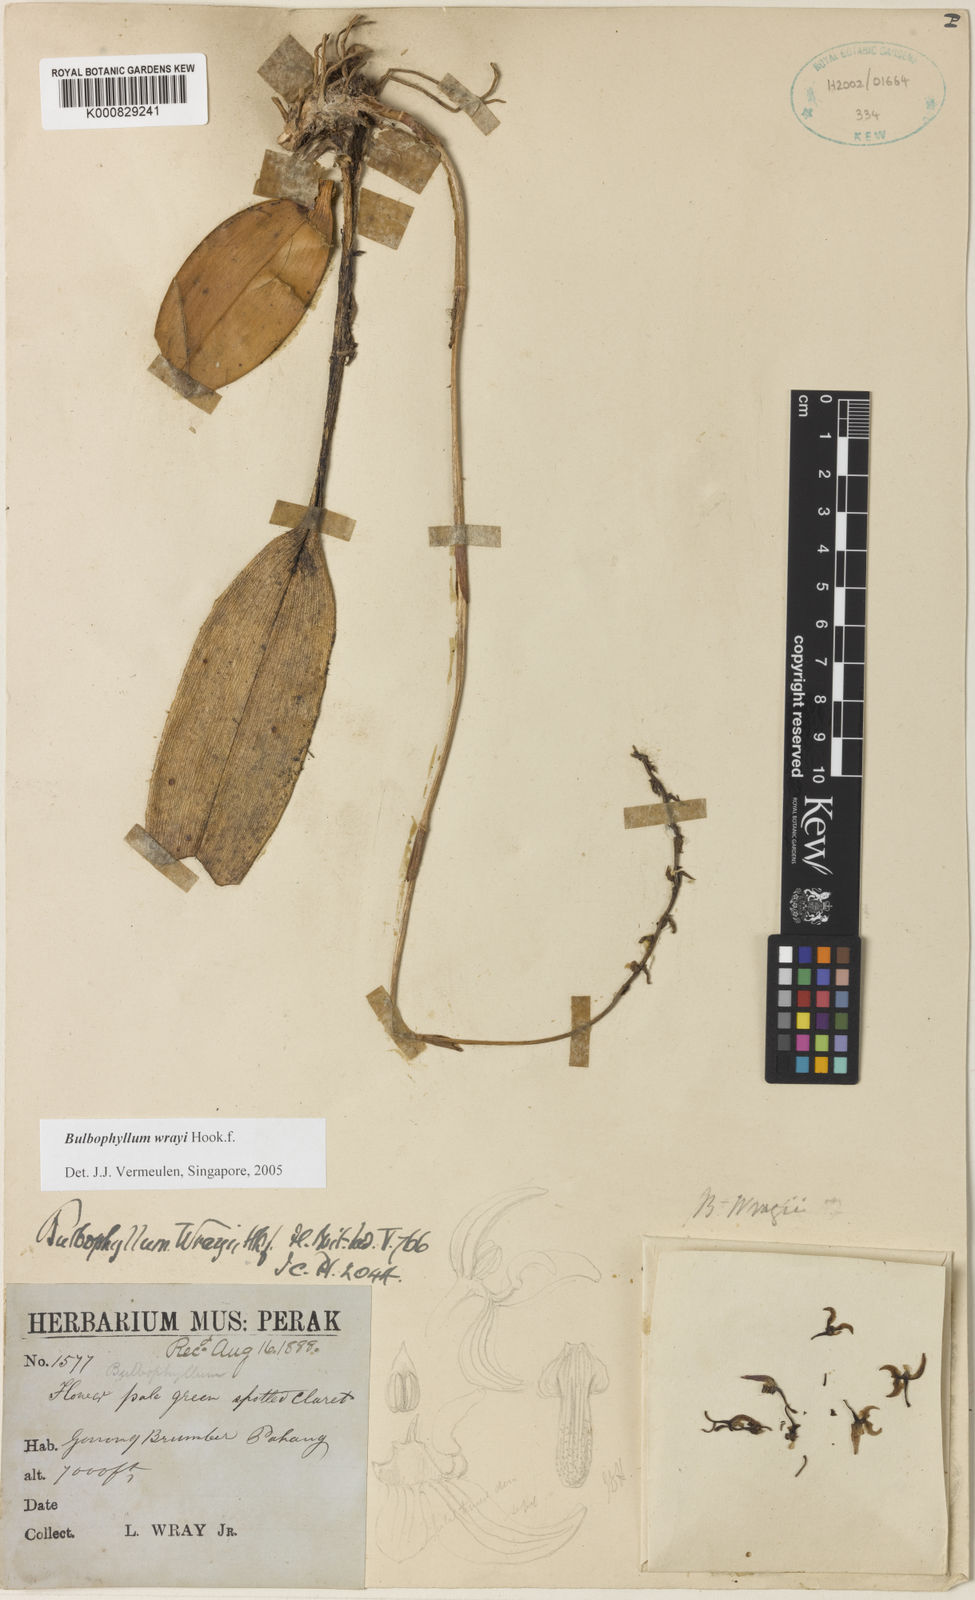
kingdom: Plantae
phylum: Tracheophyta
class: Liliopsida
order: Asparagales
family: Orchidaceae
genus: Bulbophyllum
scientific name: Bulbophyllum wrayi
